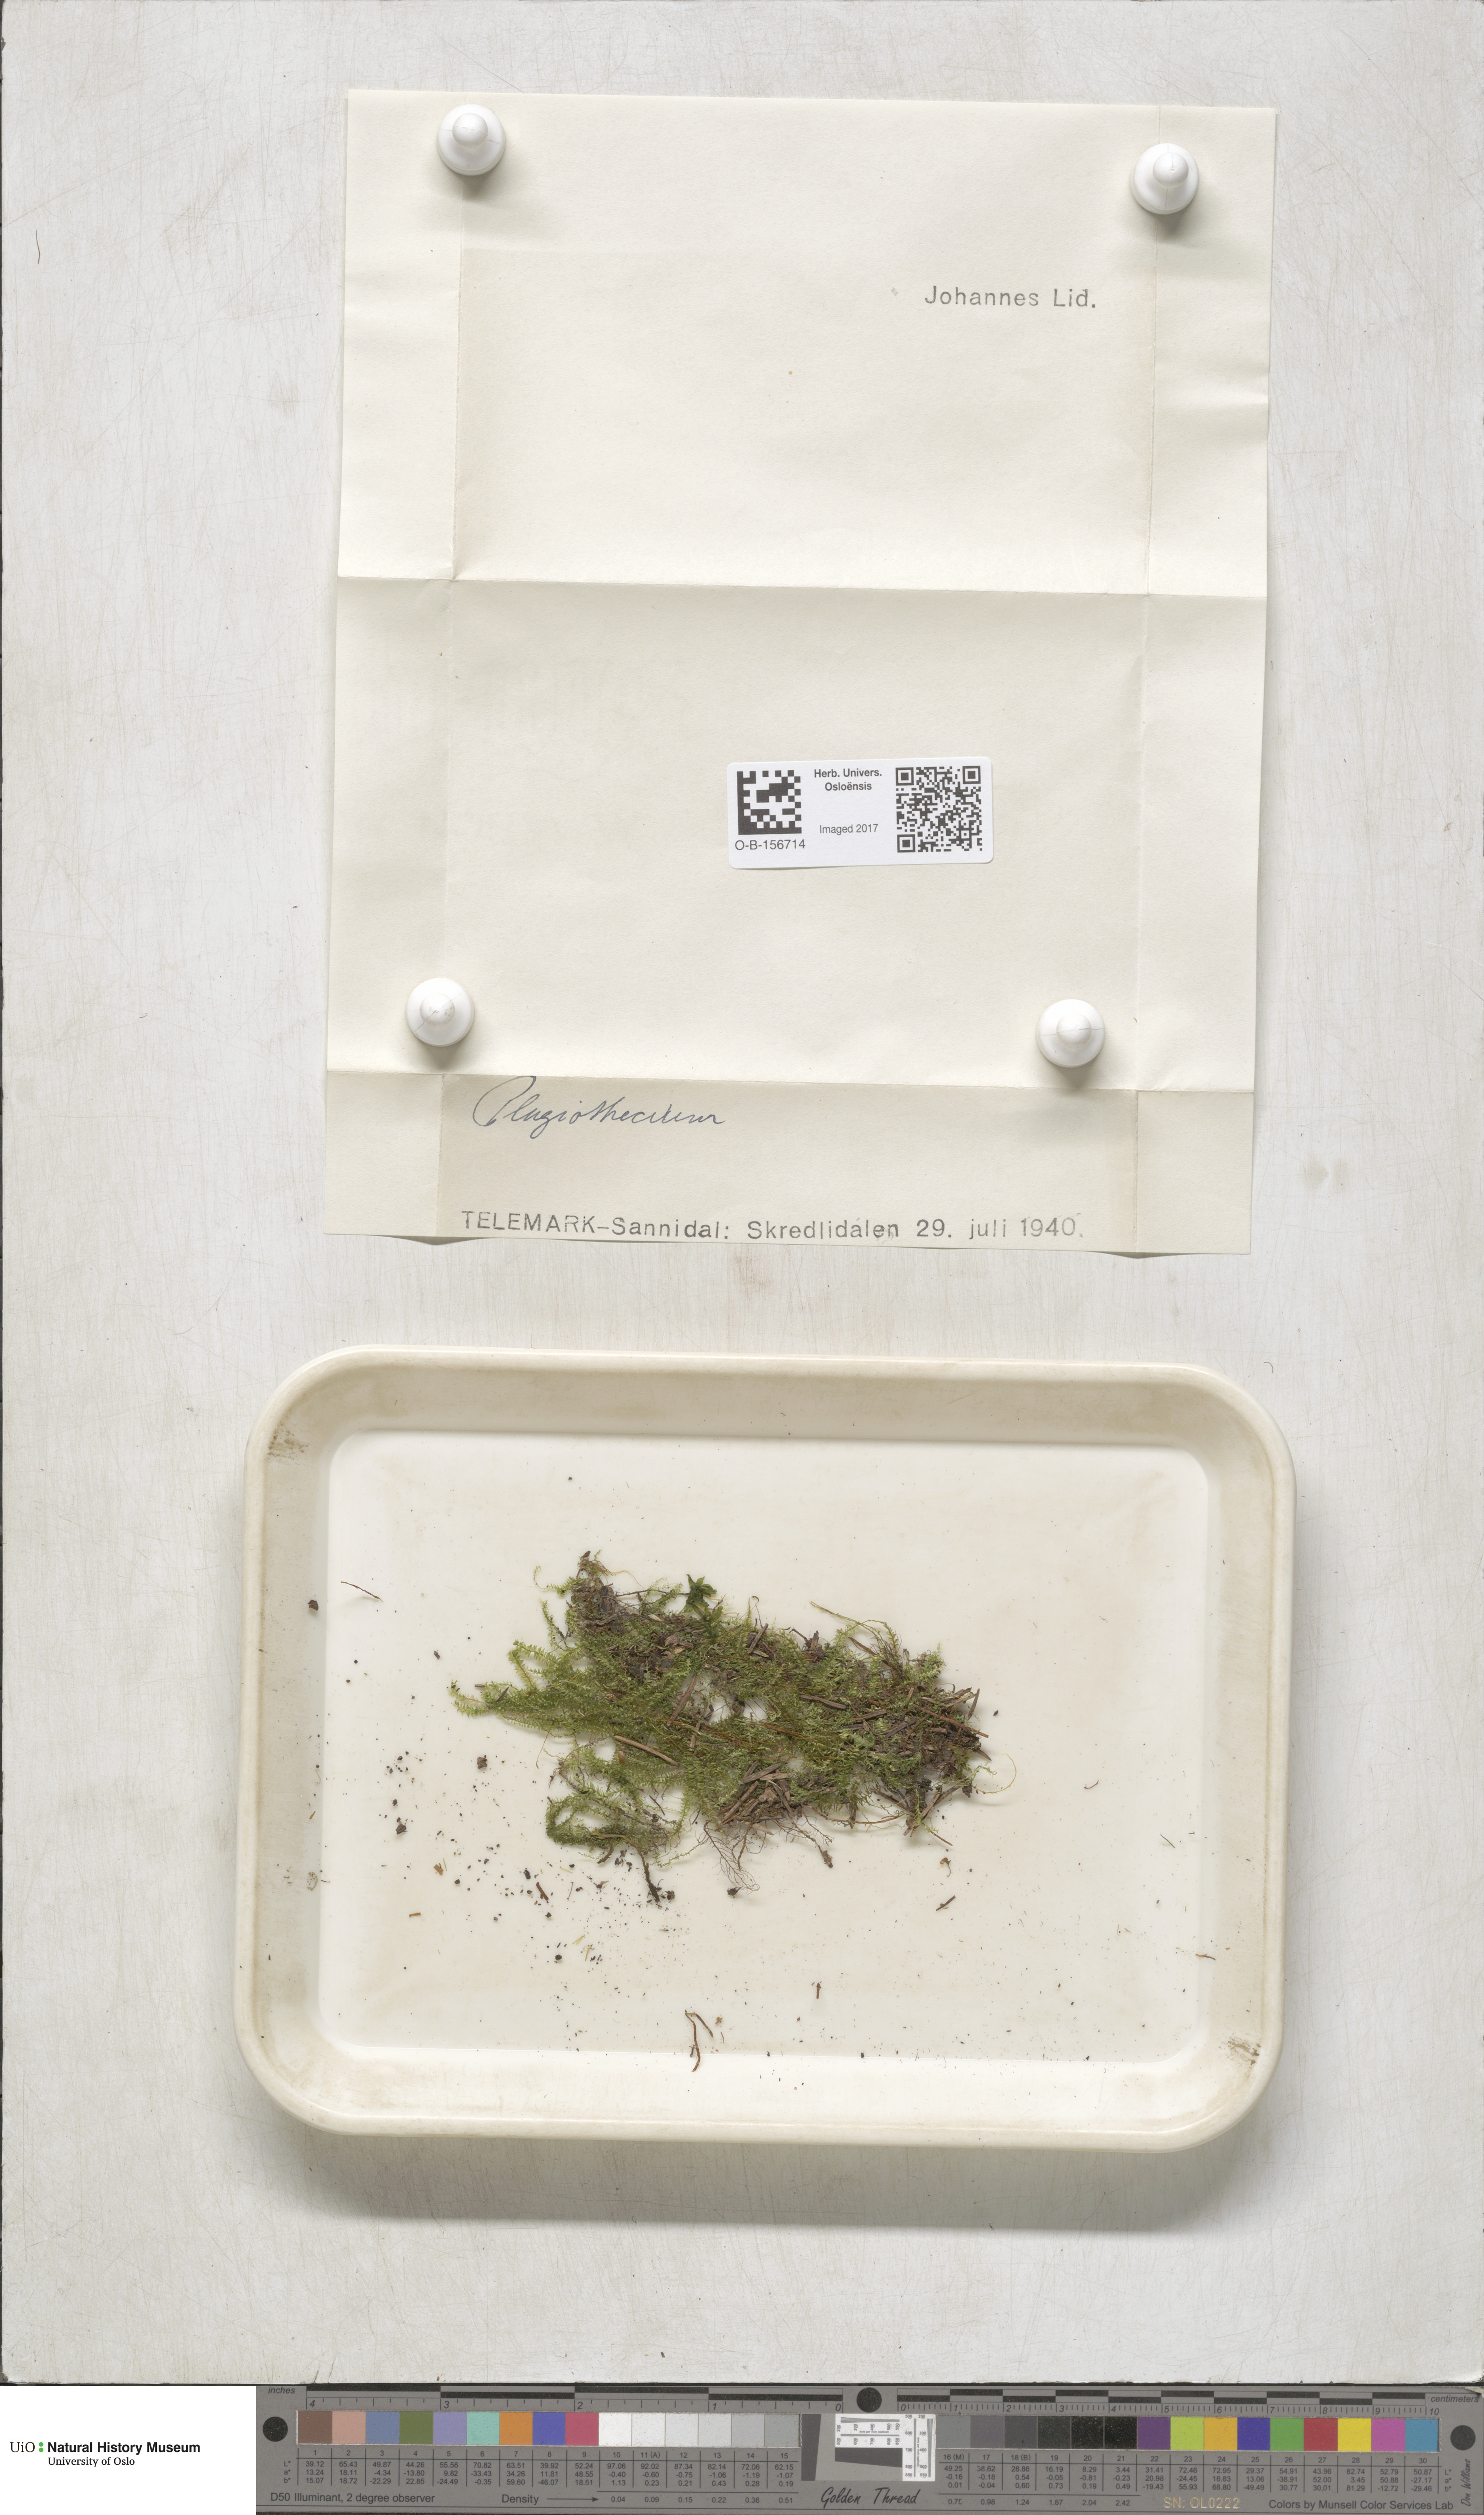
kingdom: Plantae
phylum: Bryophyta
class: Bryopsida
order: Hypnales
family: Plagiotheciaceae
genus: Plagiothecium
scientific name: Plagiothecium
